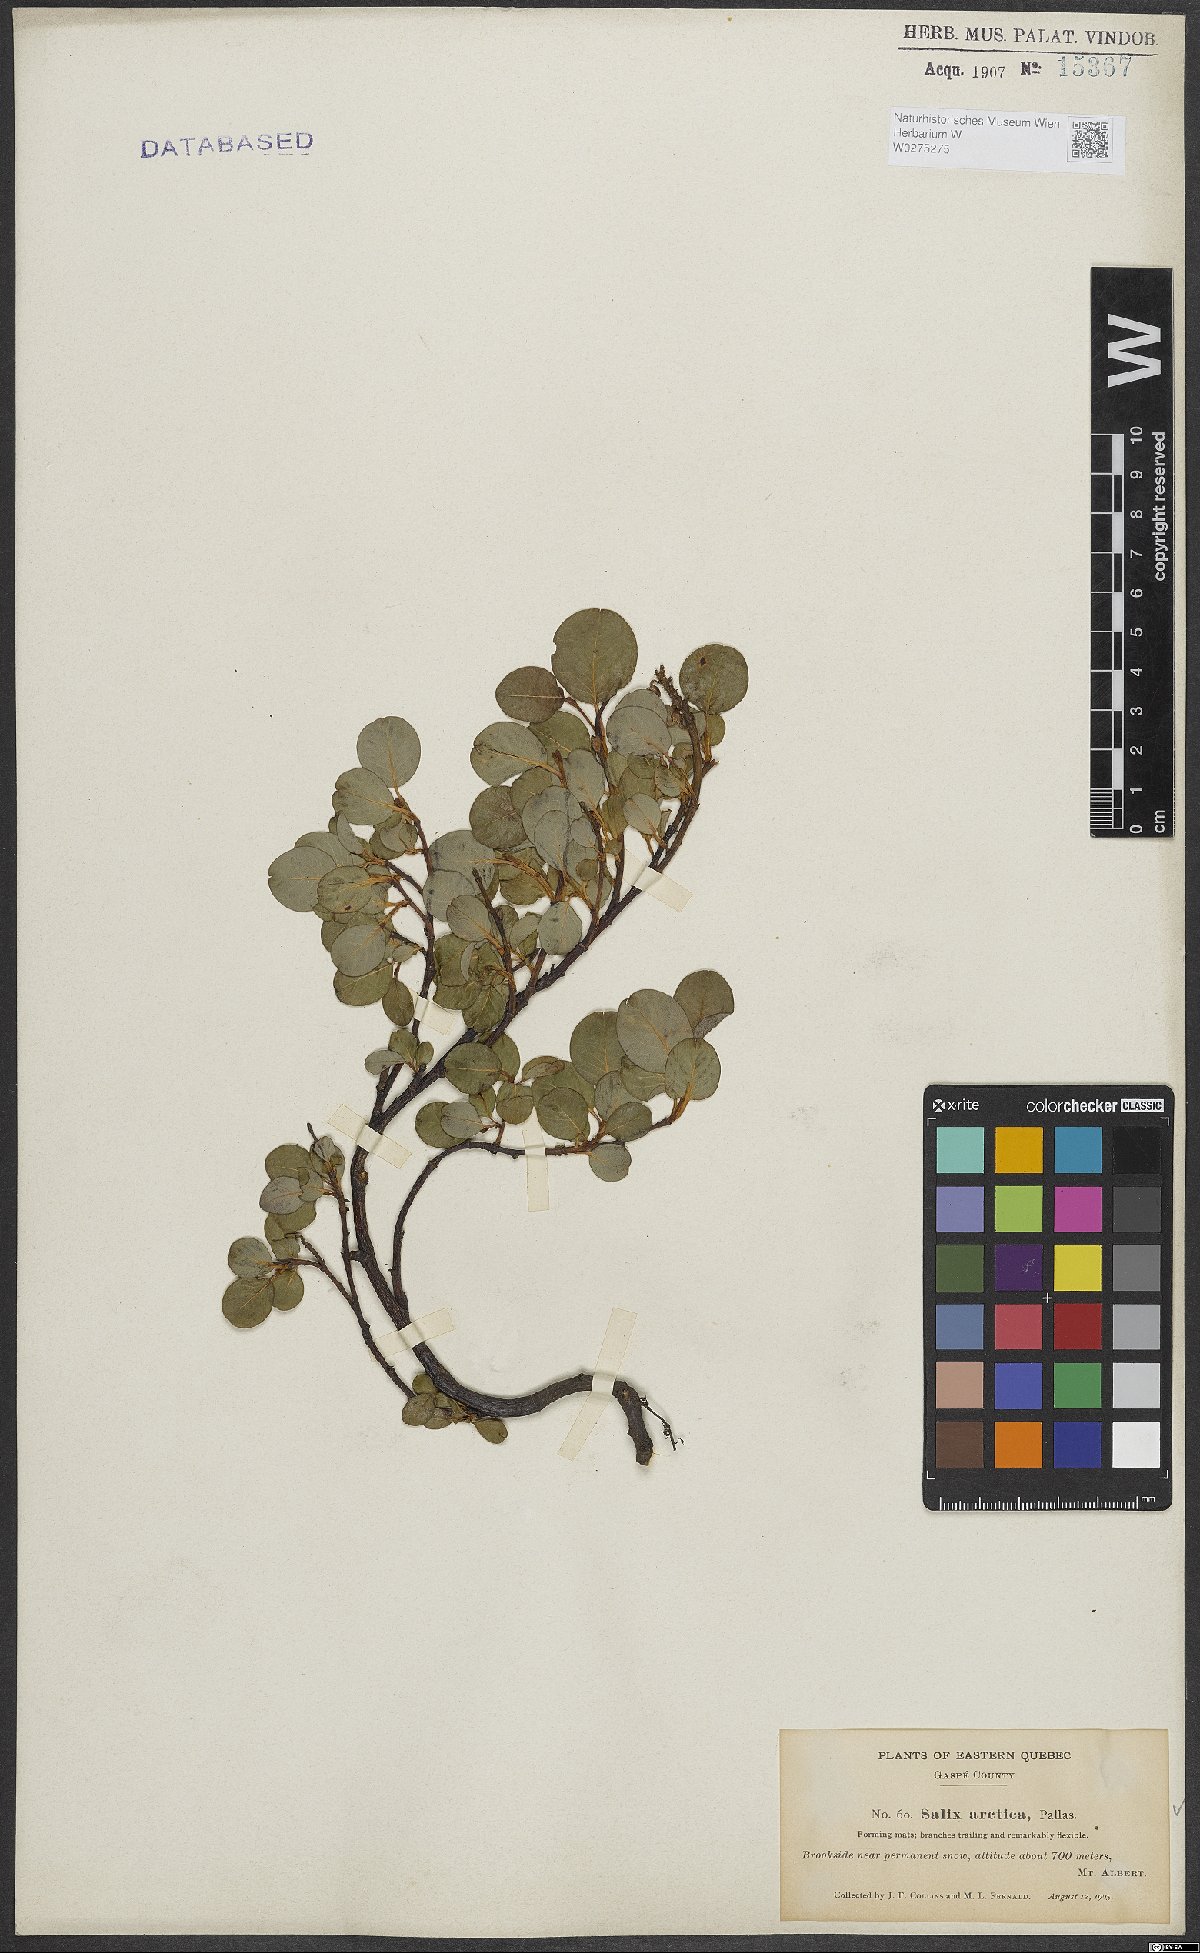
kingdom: Plantae
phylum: Tracheophyta
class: Magnoliopsida
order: Malpighiales
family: Salicaceae
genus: Salix
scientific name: Salix arctica
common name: Arctic willow
